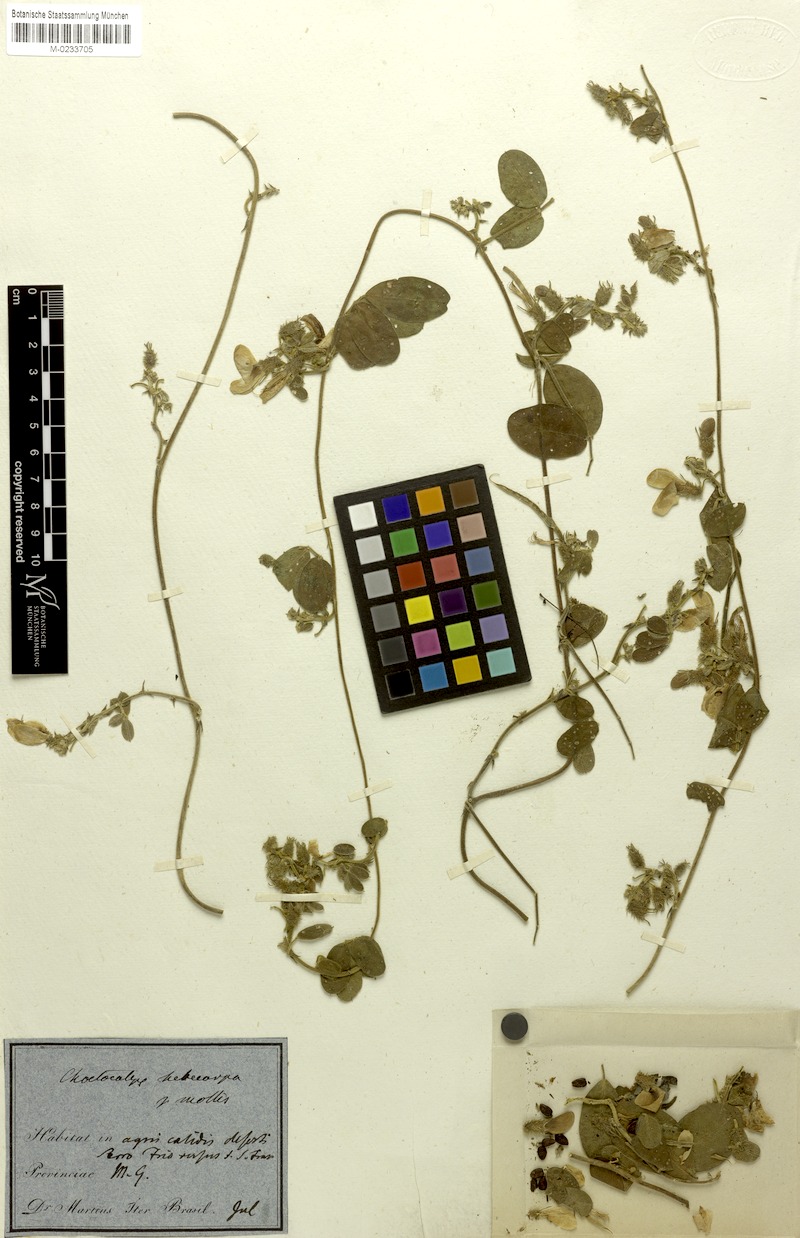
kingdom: Plantae
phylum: Tracheophyta
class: Magnoliopsida
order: Fabales
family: Fabaceae
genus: Nissolia
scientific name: Nissolia longiflora
